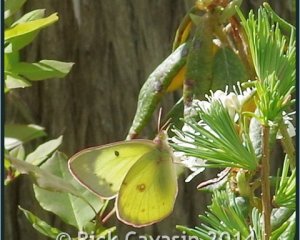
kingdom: Animalia
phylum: Arthropoda
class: Insecta
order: Lepidoptera
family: Pieridae
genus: Colias
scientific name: Colias philodice
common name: Clouded Sulphur
